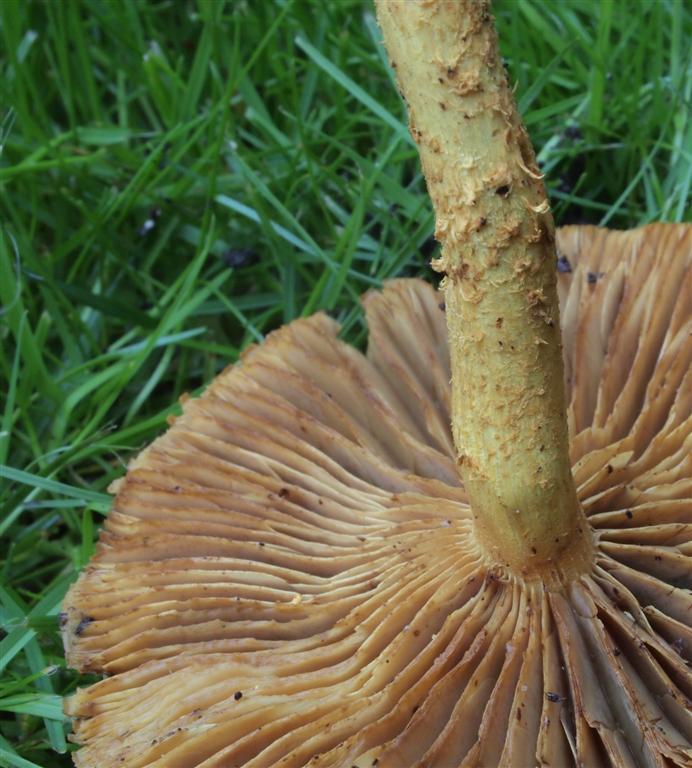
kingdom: Fungi
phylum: Basidiomycota
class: Agaricomycetes
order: Agaricales
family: Strophariaceae
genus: Pholiota
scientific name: Pholiota flammans
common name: flamme-skælhat
